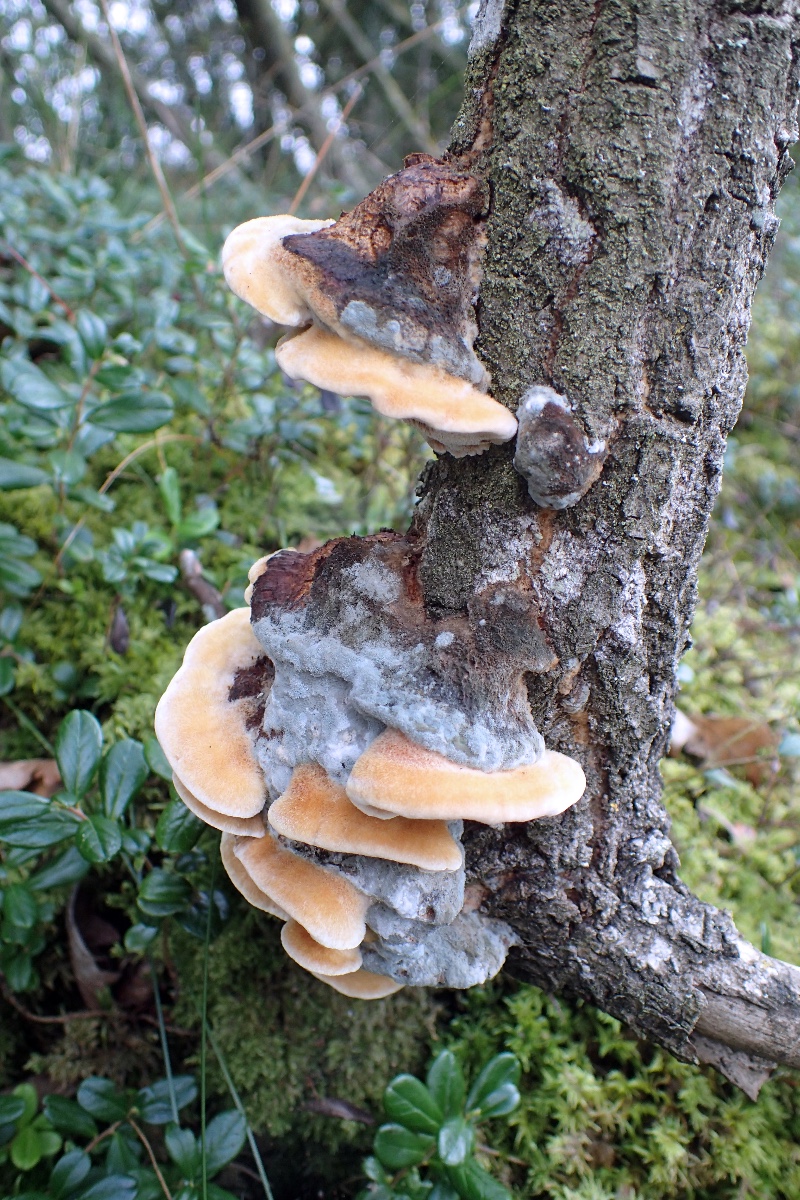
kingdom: Fungi
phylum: Basidiomycota
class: Agaricomycetes
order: Hymenochaetales
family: Hymenochaetaceae
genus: Inocutis
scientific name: Inocutis rheades
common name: ræve-spejlporesvamp
